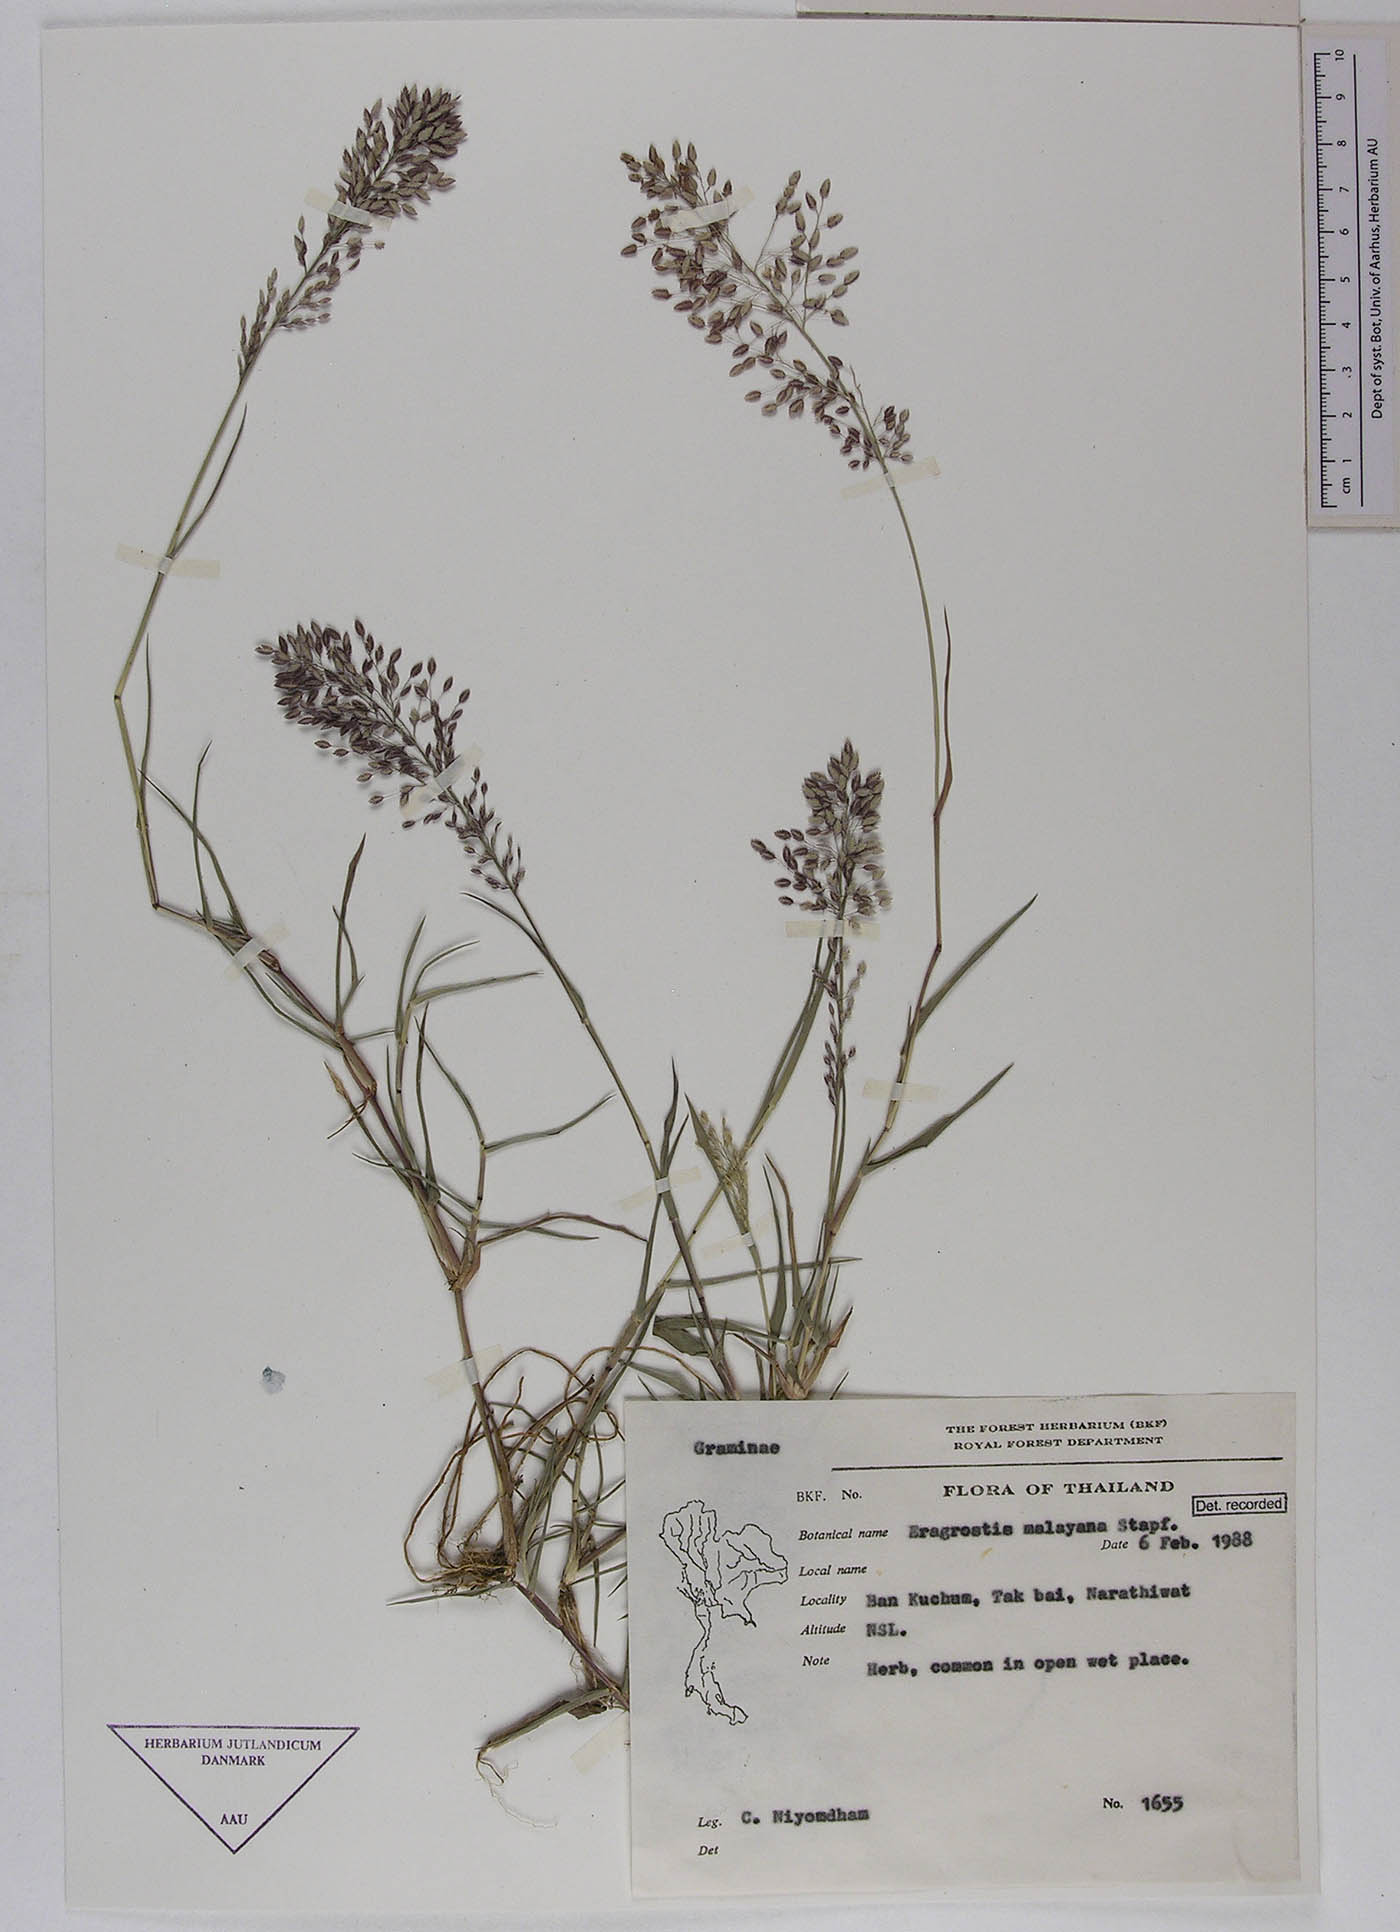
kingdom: Plantae
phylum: Tracheophyta
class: Liliopsida
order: Poales
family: Poaceae
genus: Eragrostis
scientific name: Eragrostis unioloides
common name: Chinese lovegrass
